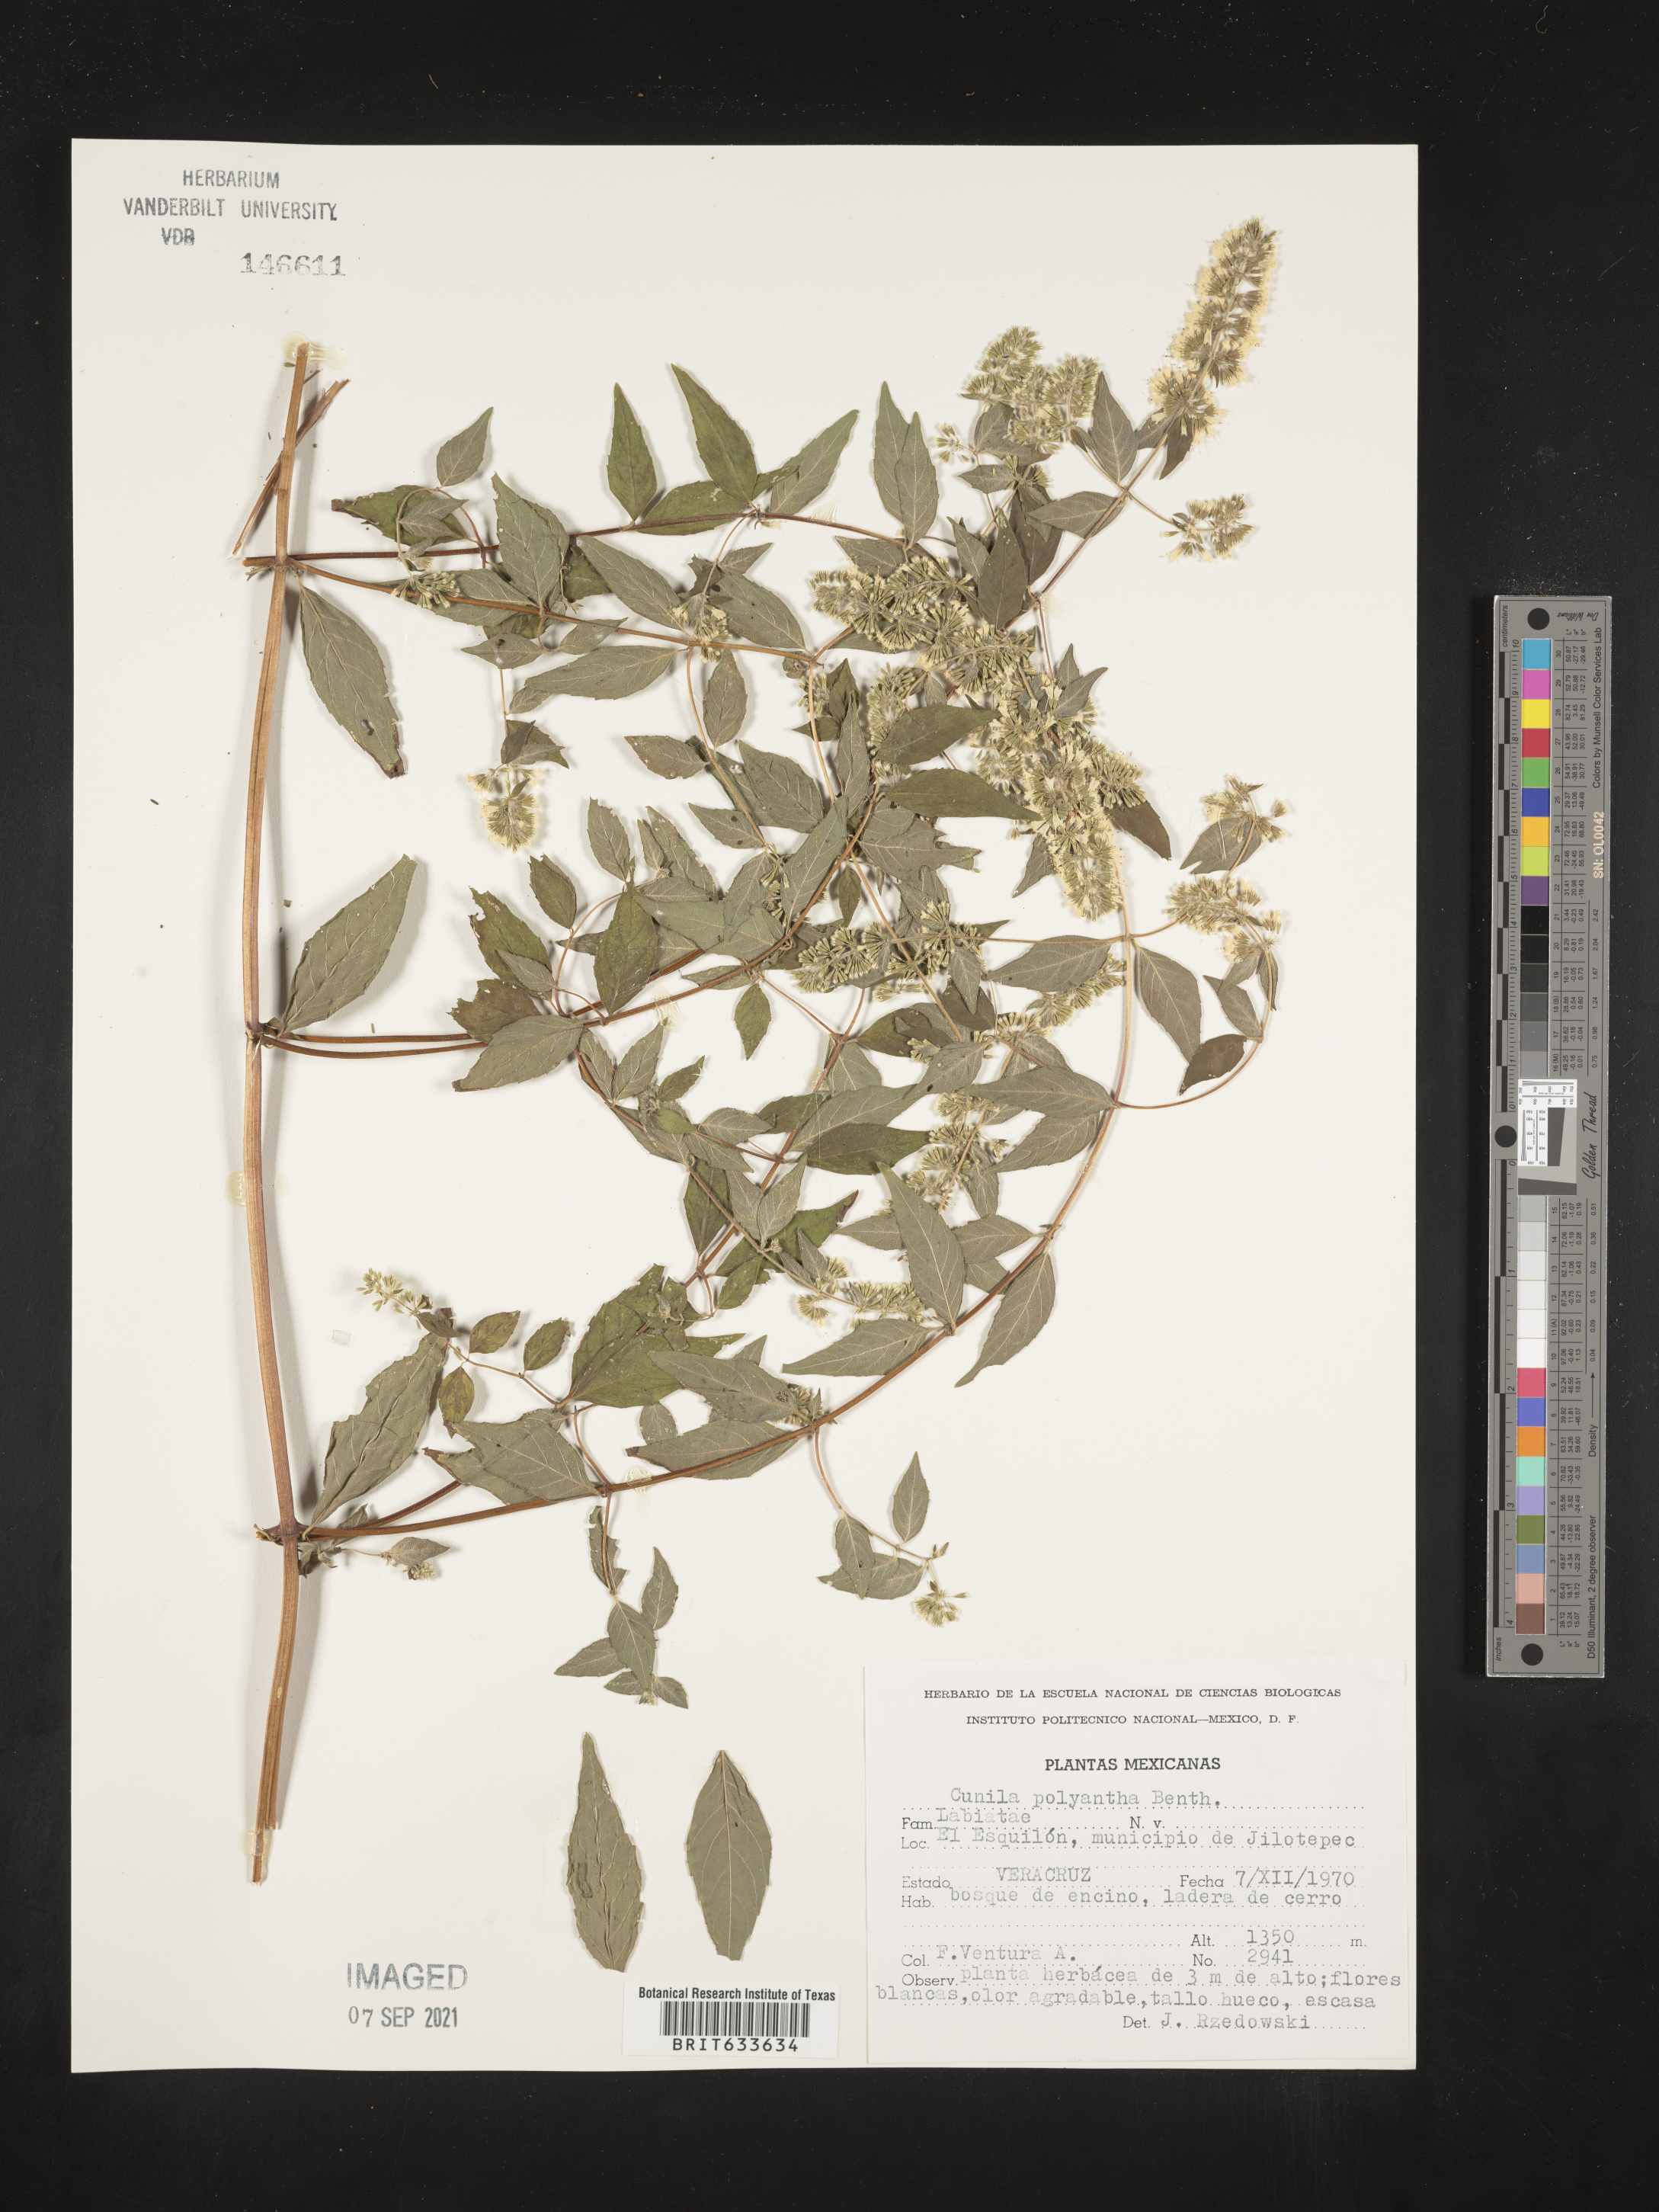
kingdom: Plantae
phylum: Tracheophyta
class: Magnoliopsida
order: Lamiales
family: Lamiaceae
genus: Cunila
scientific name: Cunila
